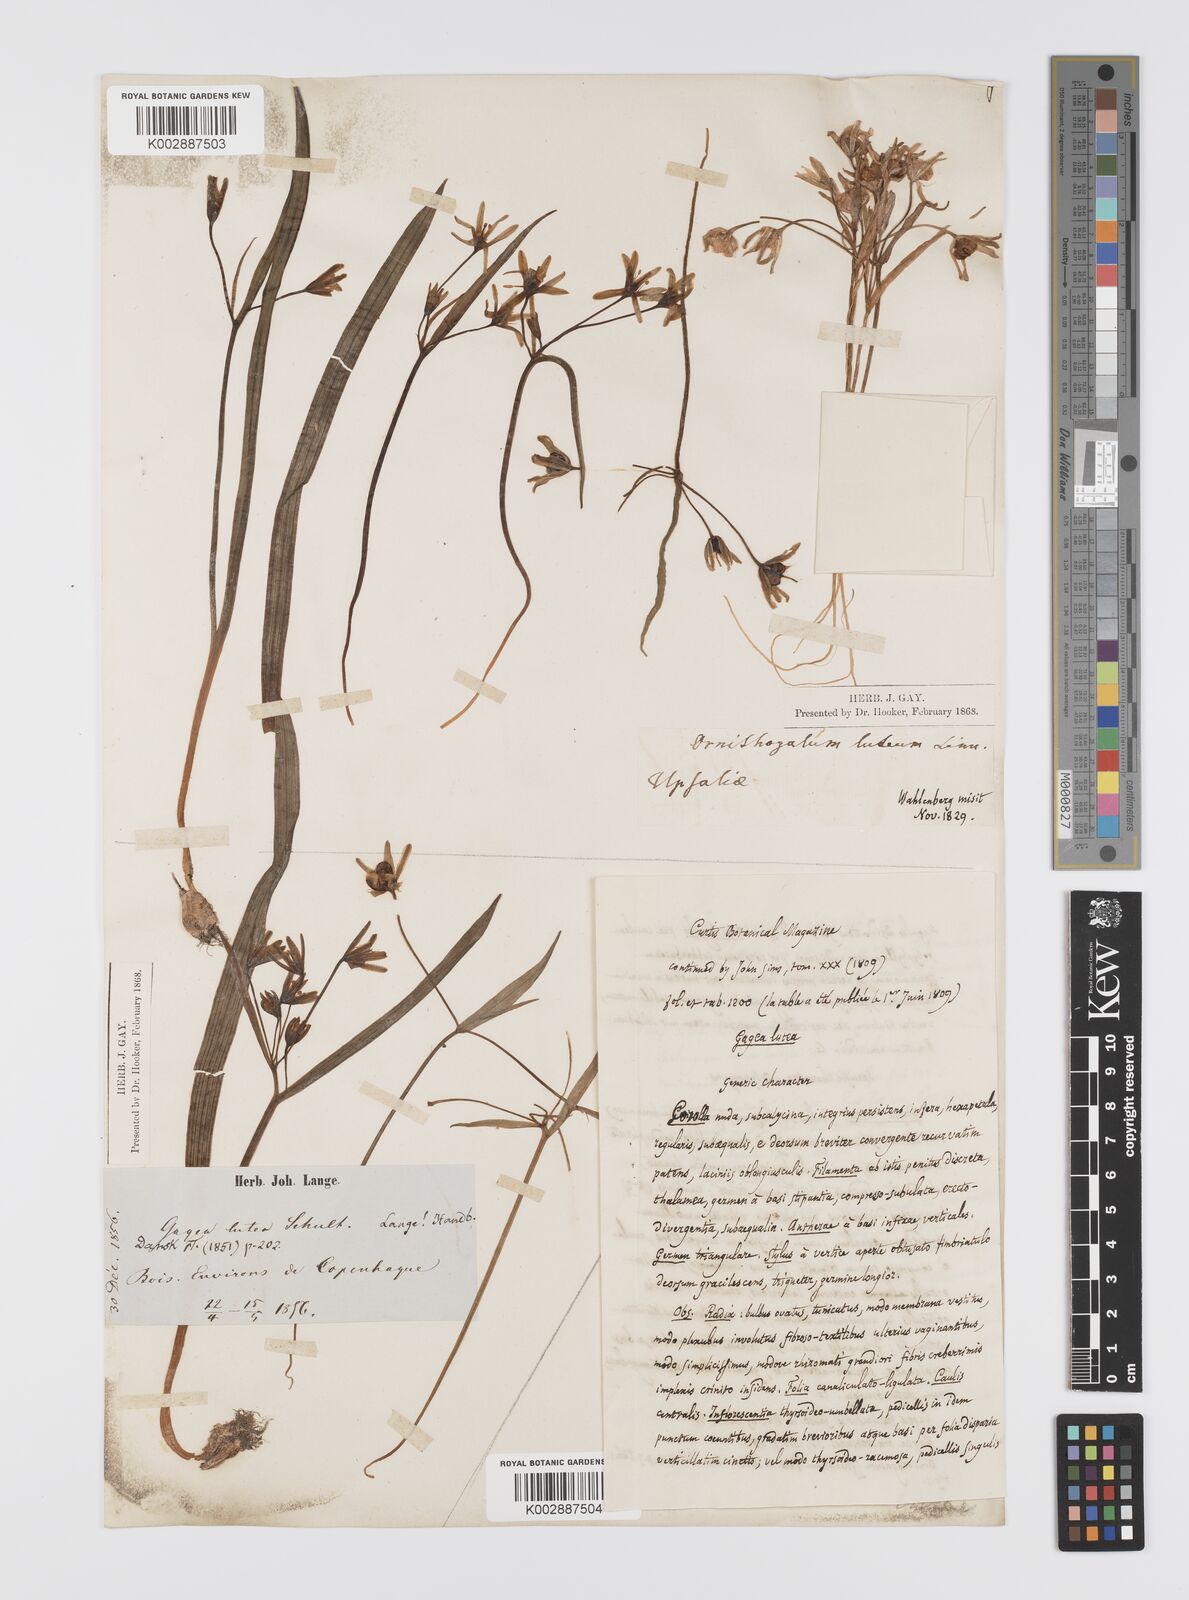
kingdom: Plantae
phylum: Tracheophyta
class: Liliopsida
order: Liliales
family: Liliaceae
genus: Gagea
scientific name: Gagea lutea
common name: Yellow star-of-bethlehem
